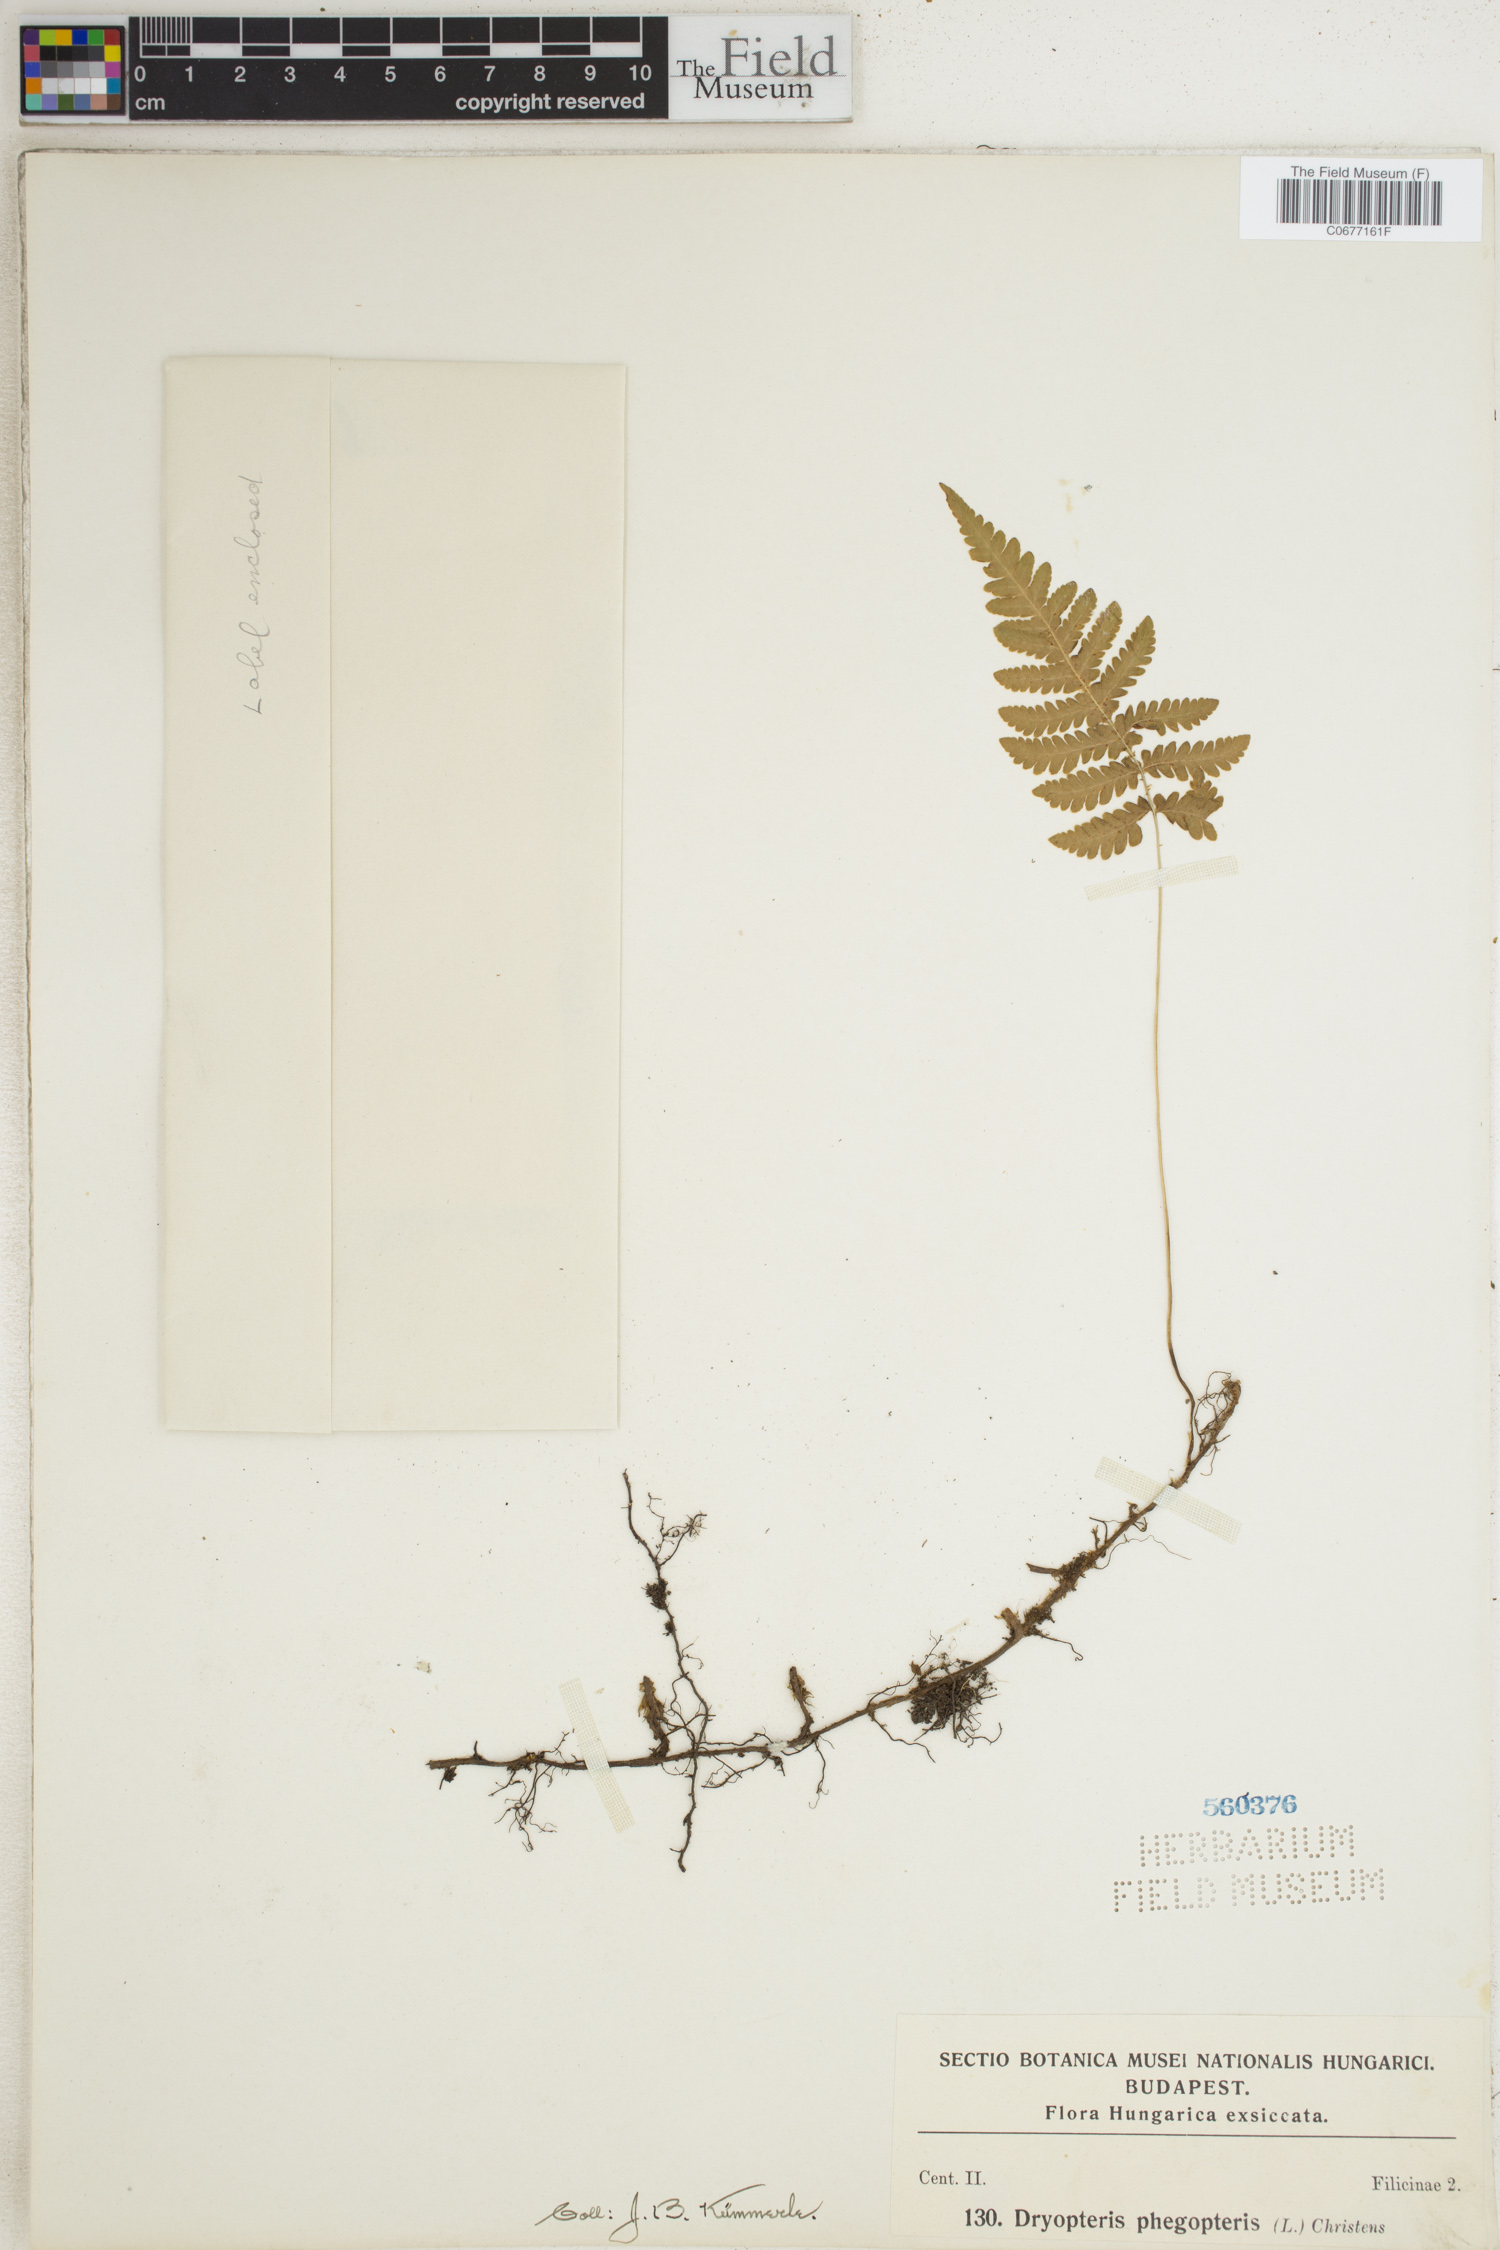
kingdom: Plantae
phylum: Tracheophyta
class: Polypodiopsida
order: Polypodiales
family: Thelypteridaceae
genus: Phegopteris
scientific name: Phegopteris connectilis
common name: Beech fern
